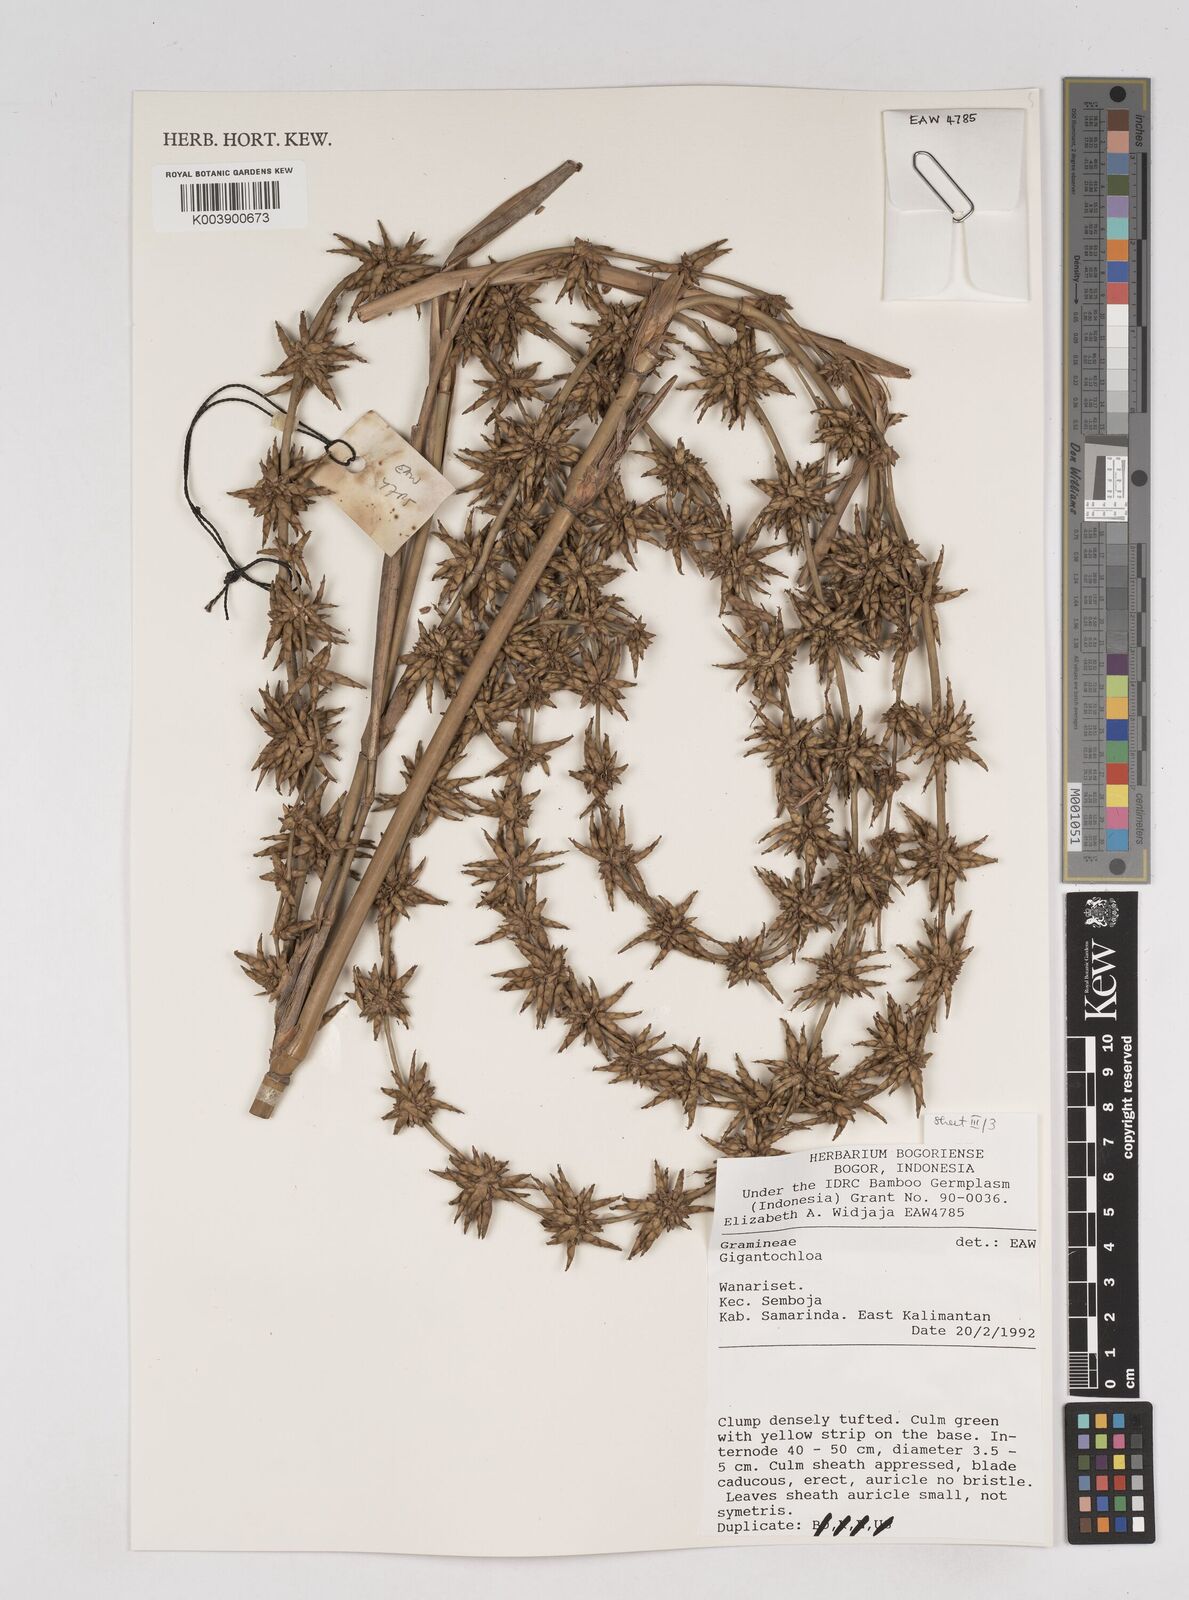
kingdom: Plantae
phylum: Tracheophyta
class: Liliopsida
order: Poales
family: Poaceae
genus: Gigantochloa
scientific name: Gigantochloa
